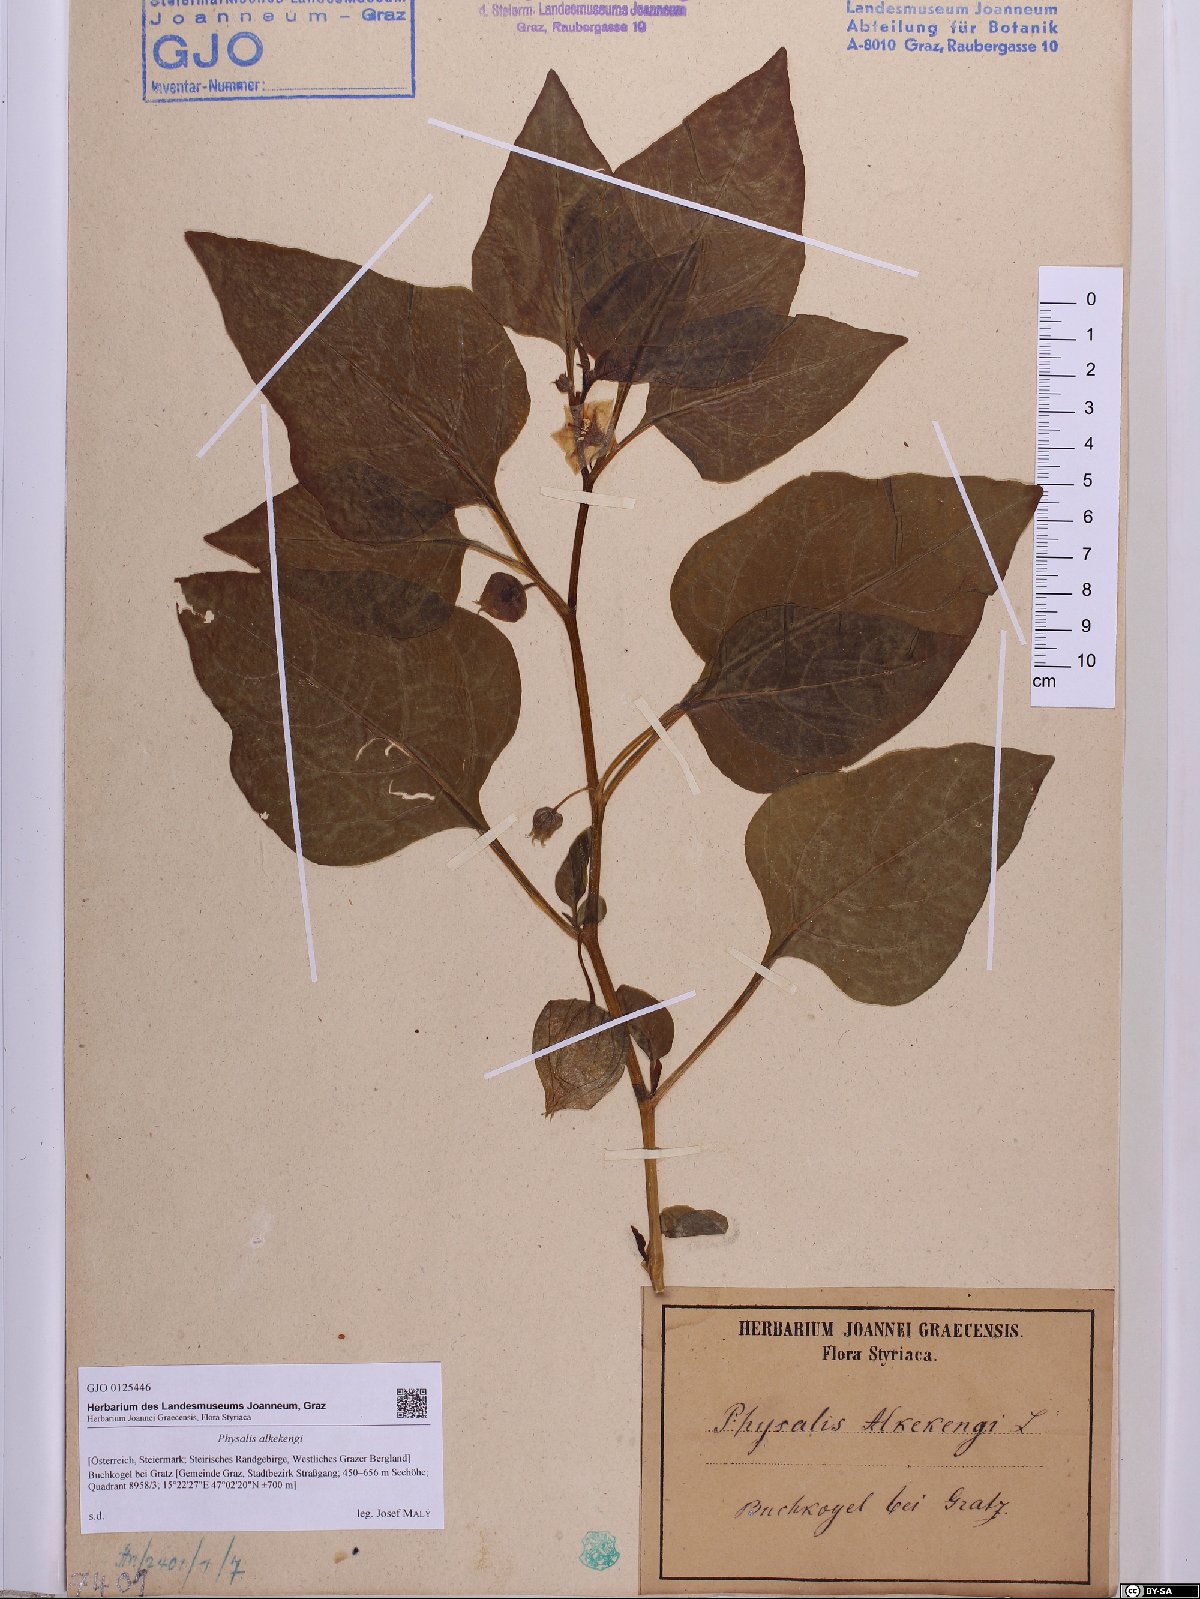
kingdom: Plantae
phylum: Tracheophyta
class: Magnoliopsida
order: Solanales
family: Solanaceae
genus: Alkekengi
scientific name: Alkekengi officinarum
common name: Japanese-lantern
